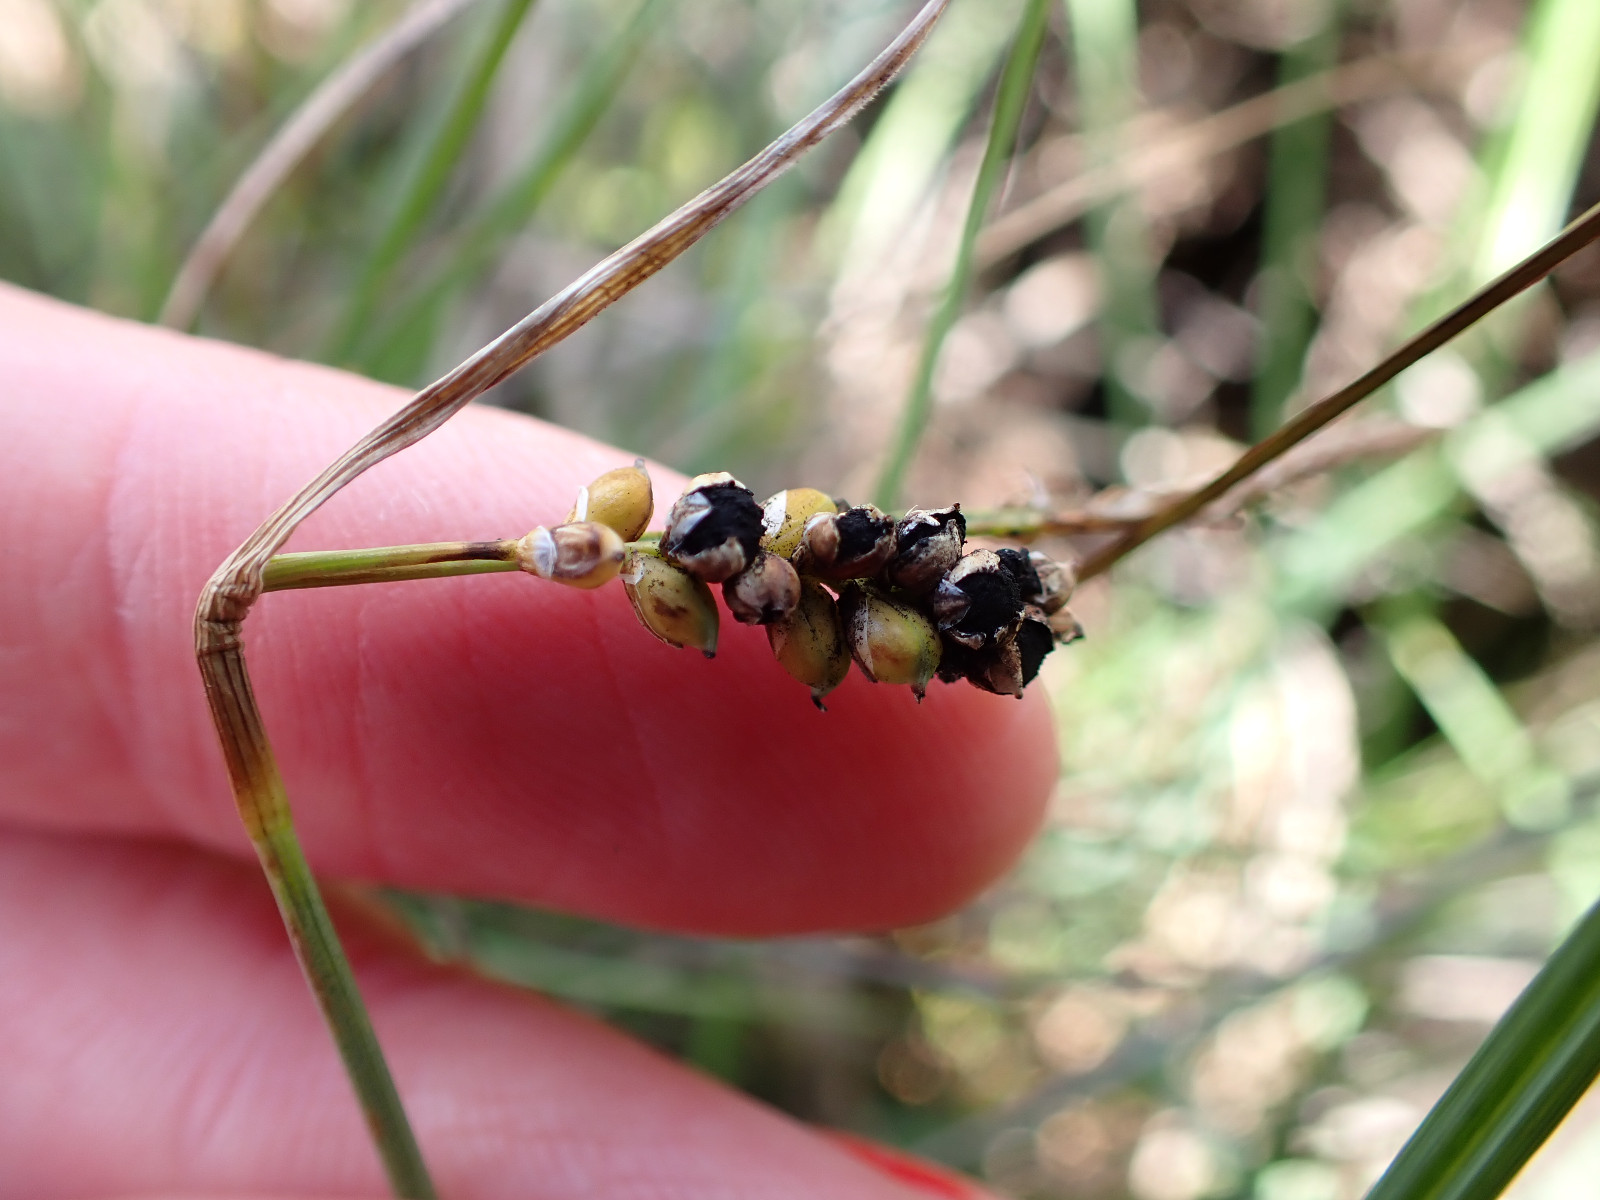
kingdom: Fungi
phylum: Basidiomycota
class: Ustilaginomycetes
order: Ustilaginales
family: Anthracoideaceae
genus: Anthracoidea
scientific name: Anthracoidea paniceae
